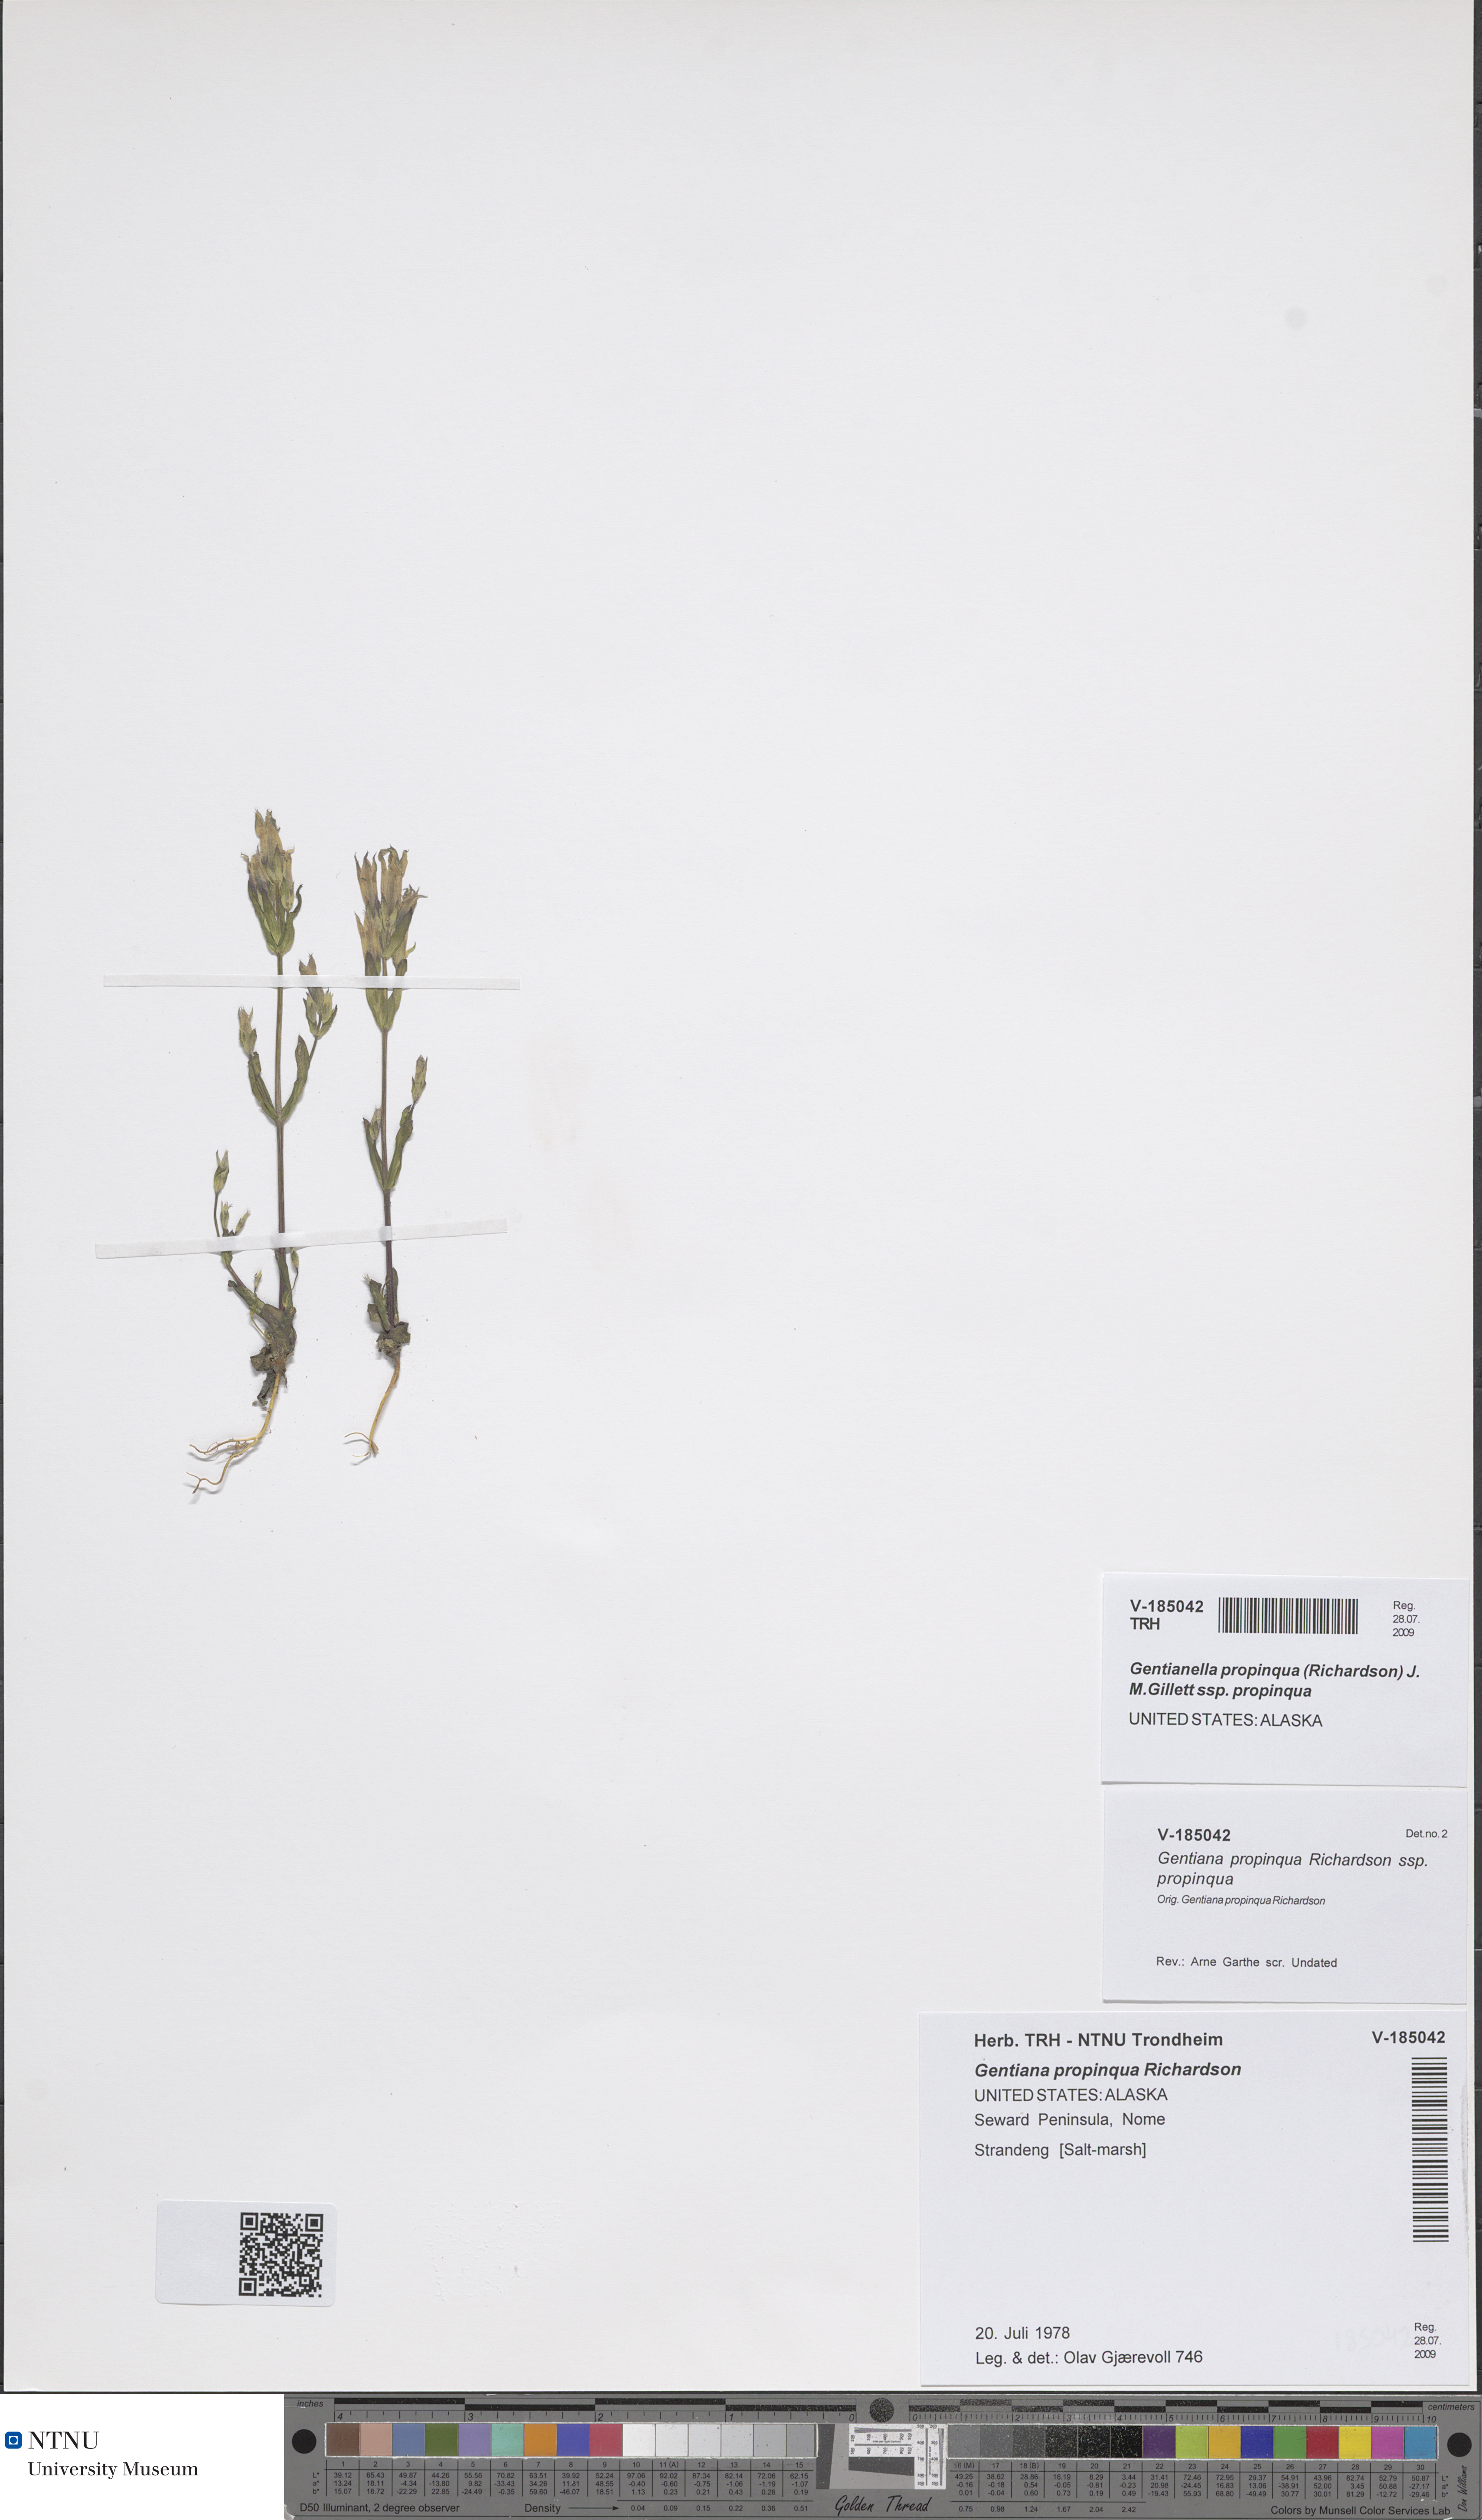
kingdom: Plantae
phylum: Tracheophyta
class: Magnoliopsida
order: Gentianales
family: Gentianaceae
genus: Gentianella
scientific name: Gentianella propinqua
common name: Four-parted dwarf-gentian
